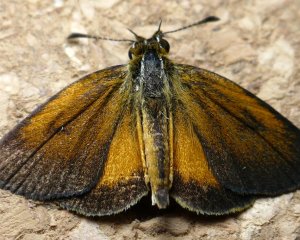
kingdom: Animalia
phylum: Arthropoda
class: Insecta
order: Lepidoptera
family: Hesperiidae
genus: Ancyloxypha
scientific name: Ancyloxypha numitor
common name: Least Skipper
